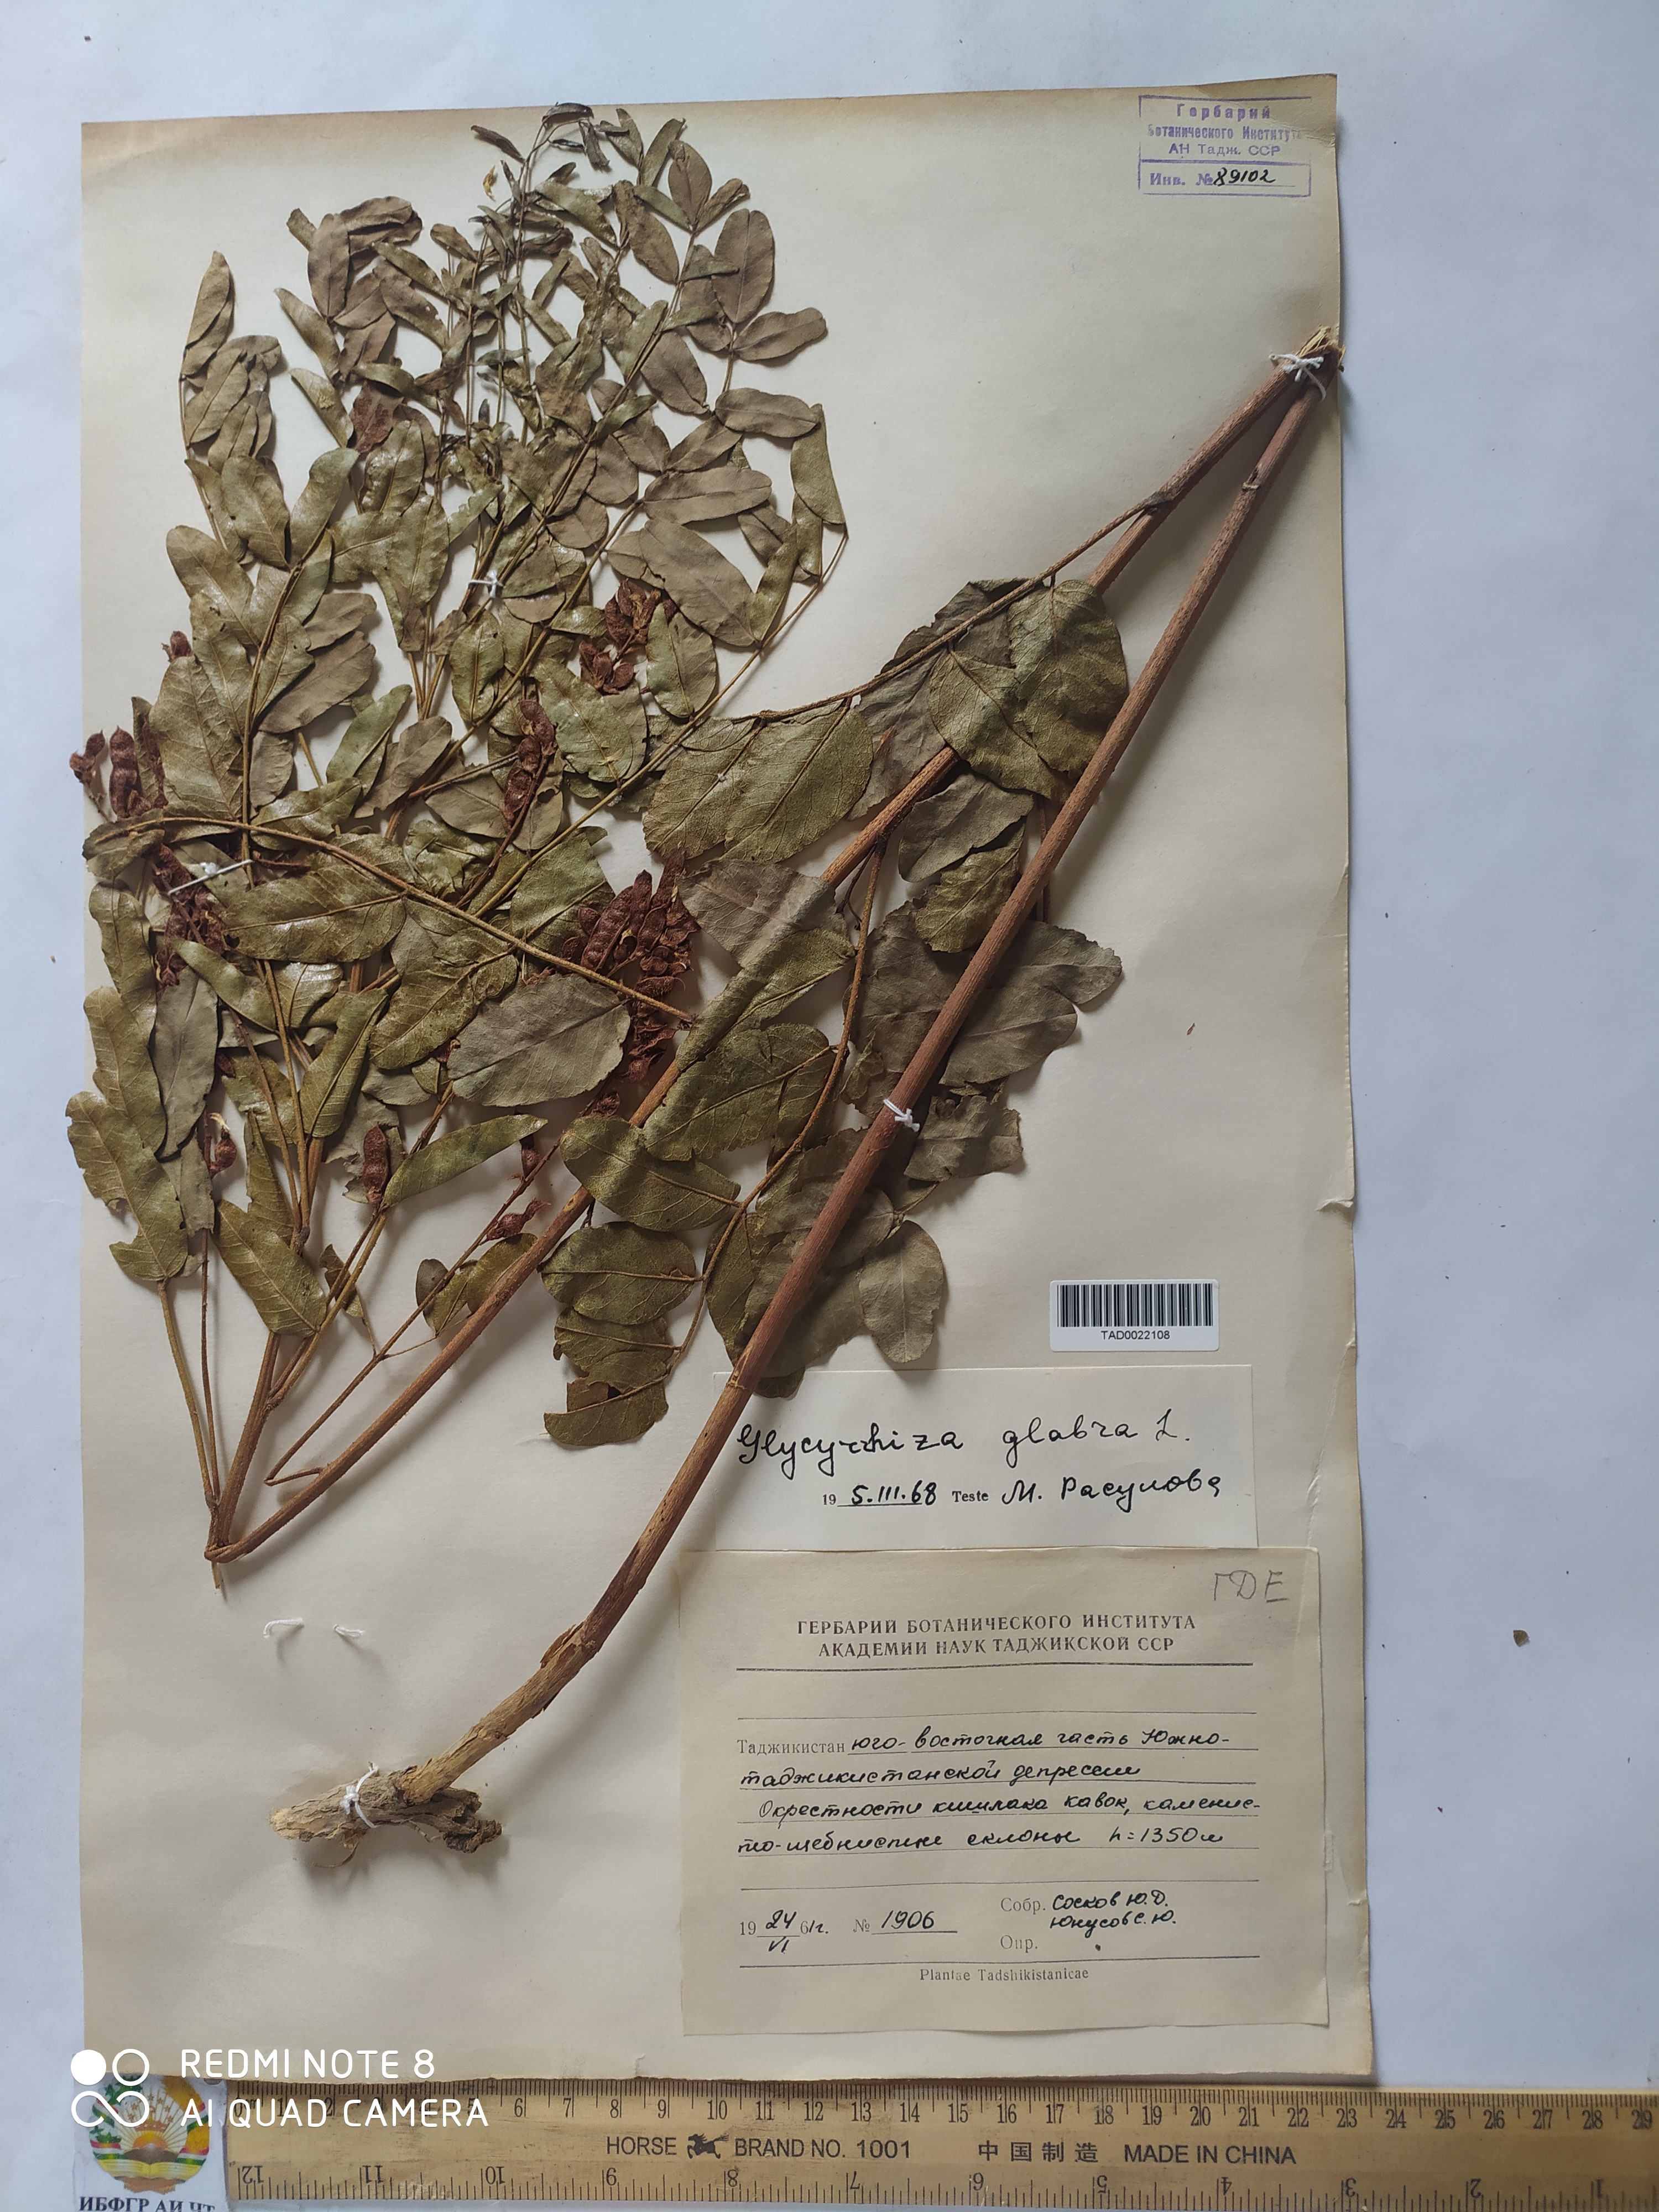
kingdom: Plantae
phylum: Tracheophyta
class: Magnoliopsida
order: Fabales
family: Fabaceae
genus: Glycyrrhiza
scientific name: Glycyrrhiza glabra
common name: Liquorice
